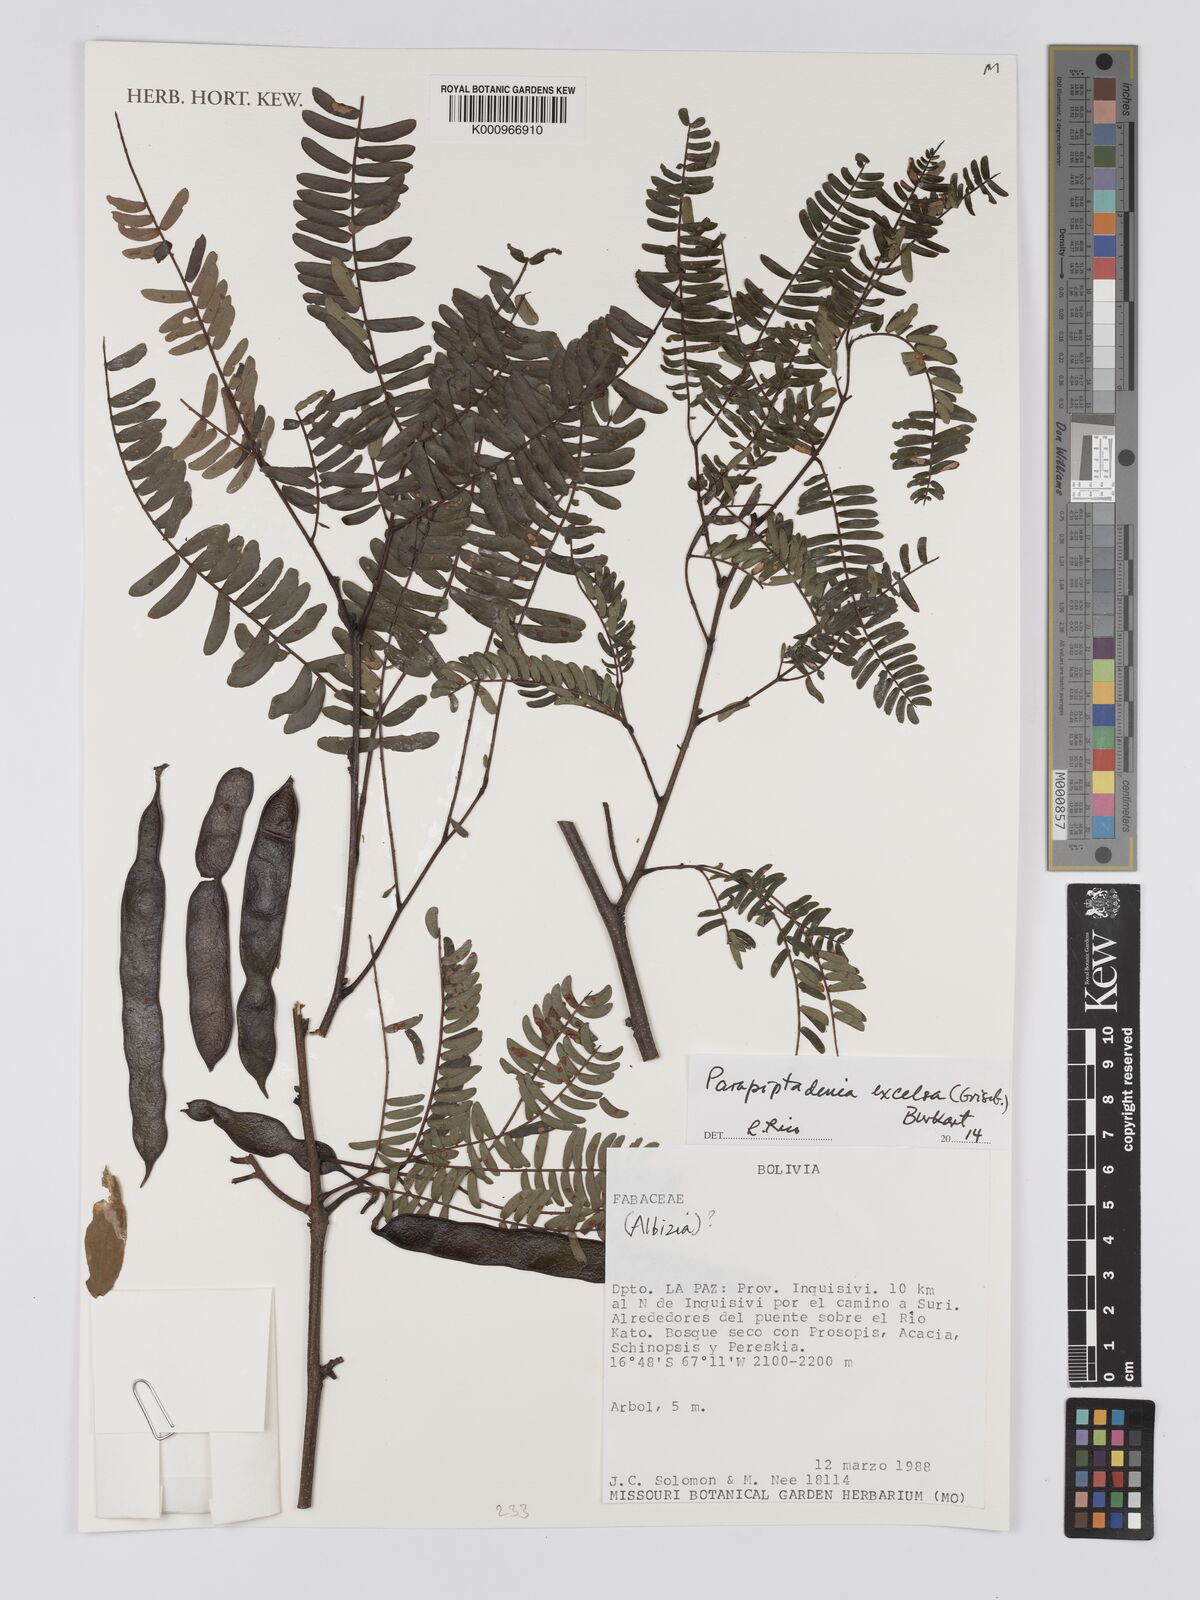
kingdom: Plantae
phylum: Tracheophyta
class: Magnoliopsida
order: Fabales
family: Fabaceae
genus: Parapiptadenia
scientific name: Parapiptadenia excelsa
